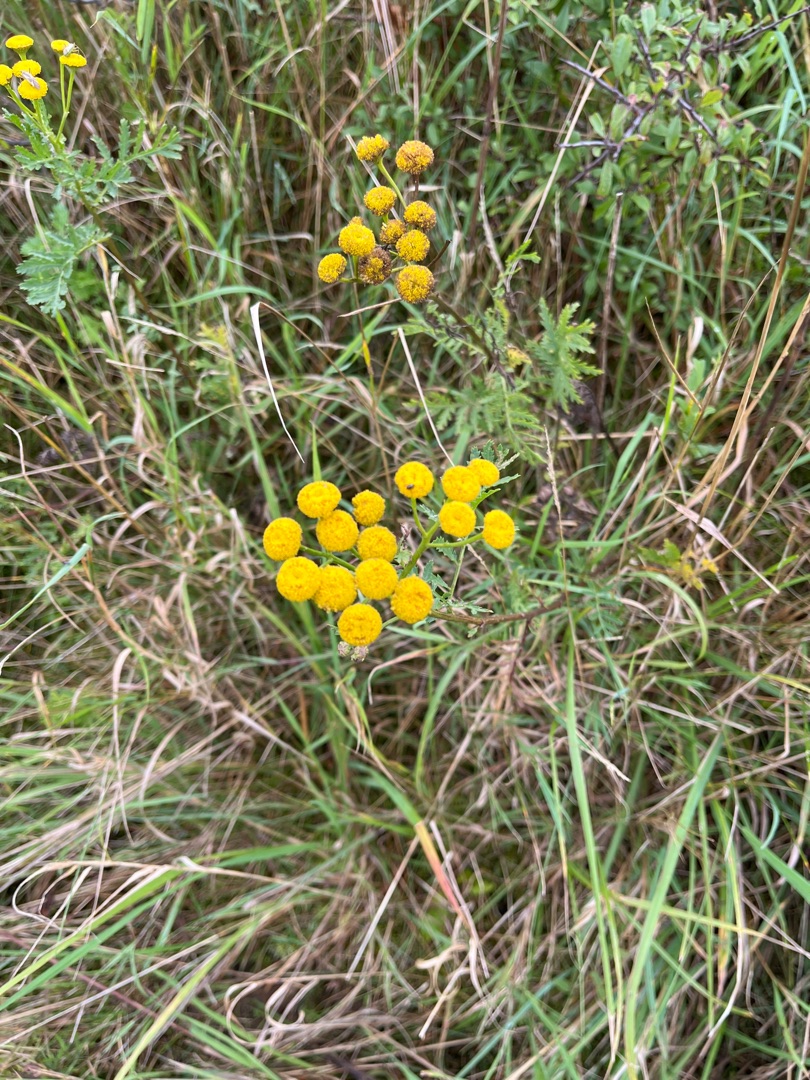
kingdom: Plantae
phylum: Tracheophyta
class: Magnoliopsida
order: Asterales
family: Asteraceae
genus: Tanacetum
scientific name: Tanacetum vulgare
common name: Rejnfan
